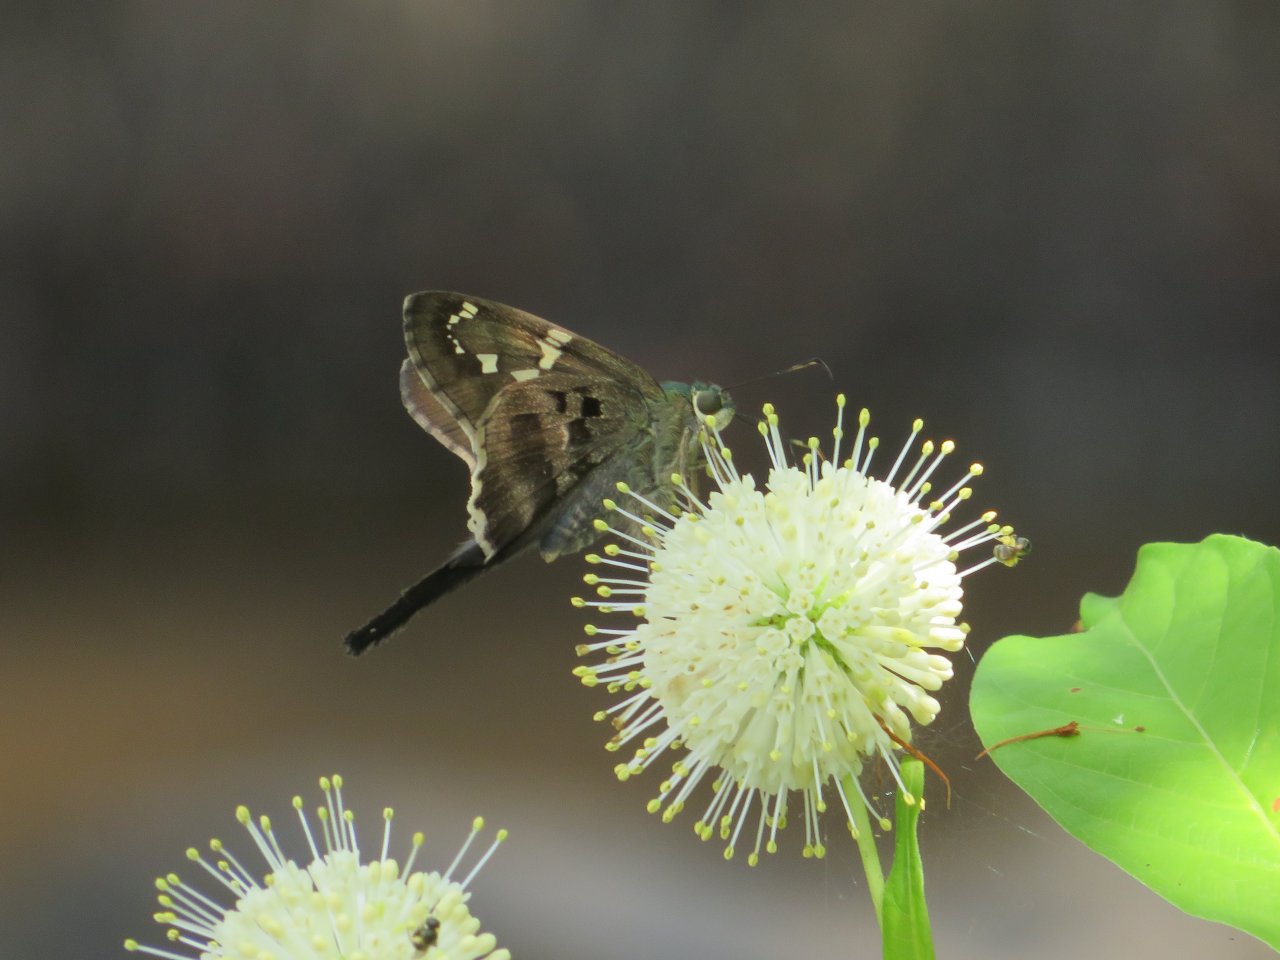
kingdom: Animalia
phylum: Arthropoda
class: Insecta
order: Lepidoptera
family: Hesperiidae
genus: Urbanus
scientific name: Urbanus proteus
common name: Long-tailed Skipper
